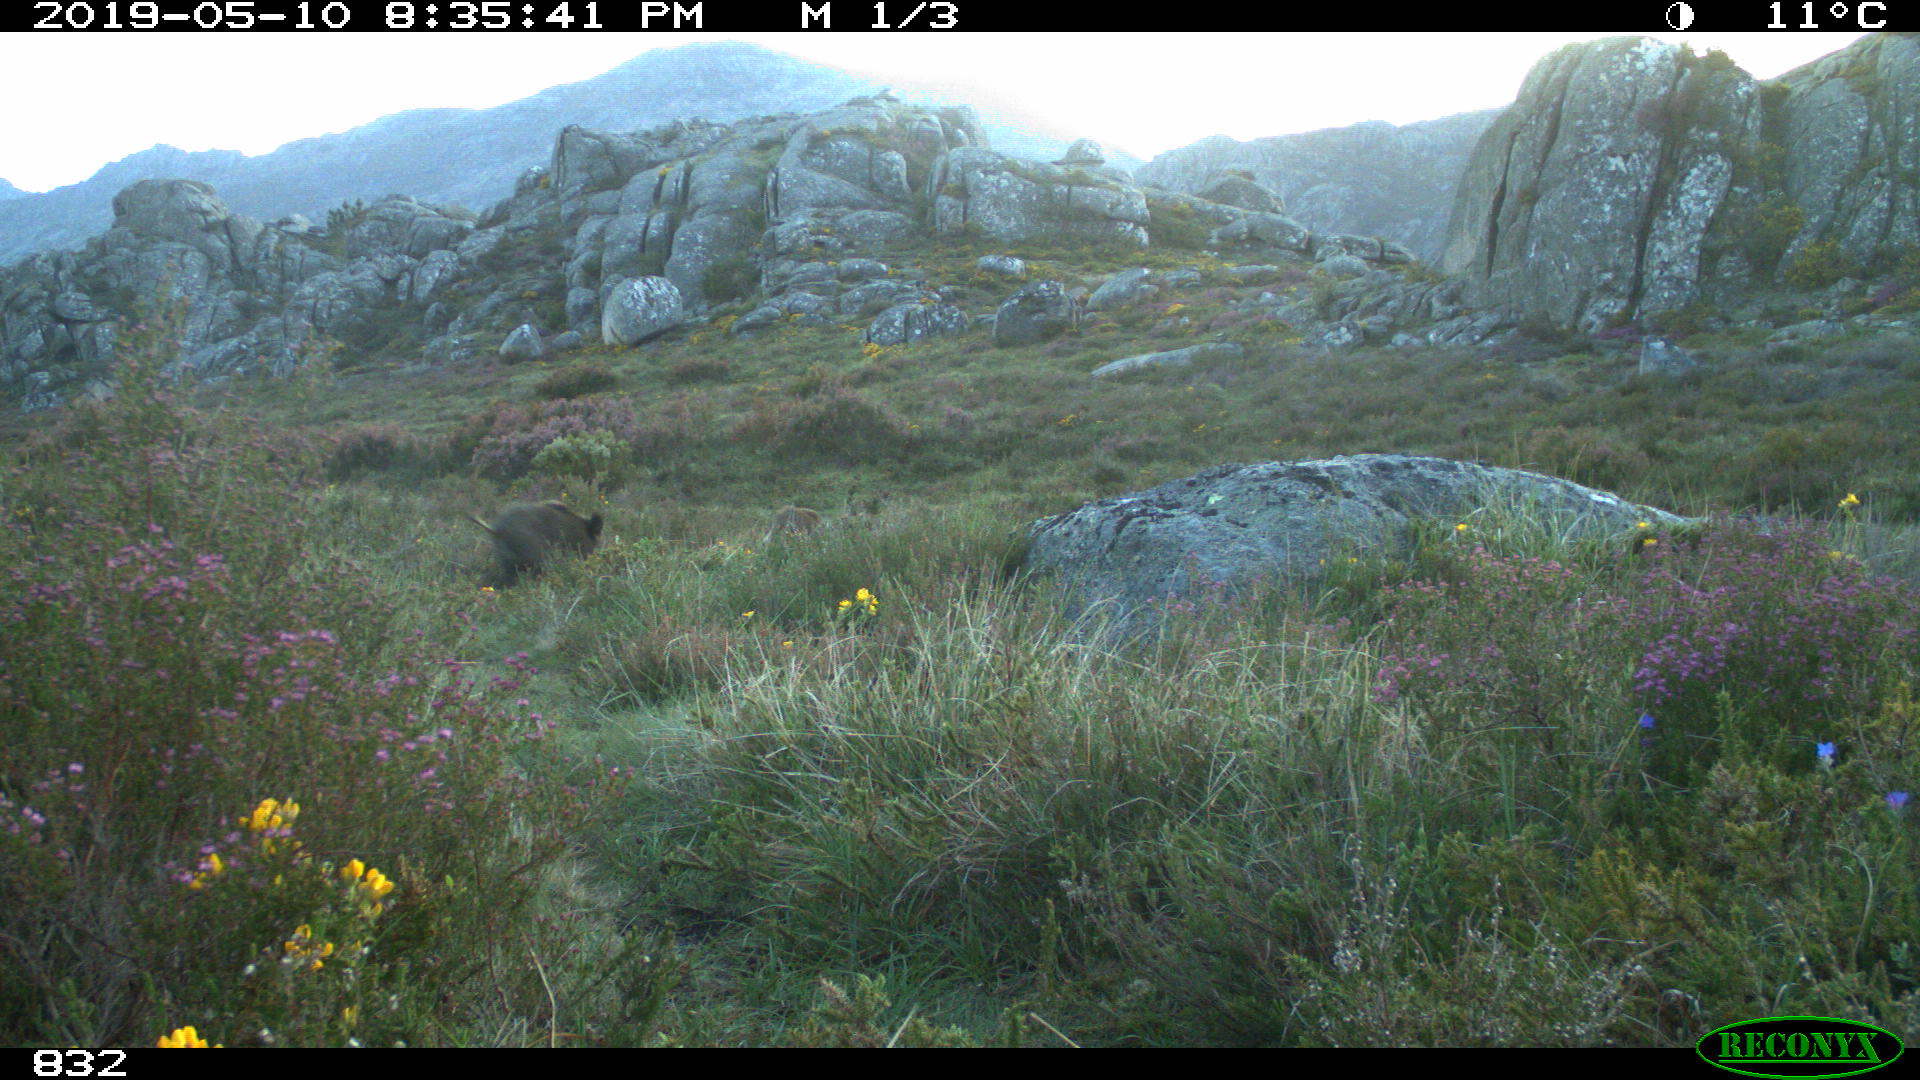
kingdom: Animalia
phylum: Chordata
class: Mammalia
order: Artiodactyla
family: Suidae
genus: Sus
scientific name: Sus scrofa
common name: Wild boar
